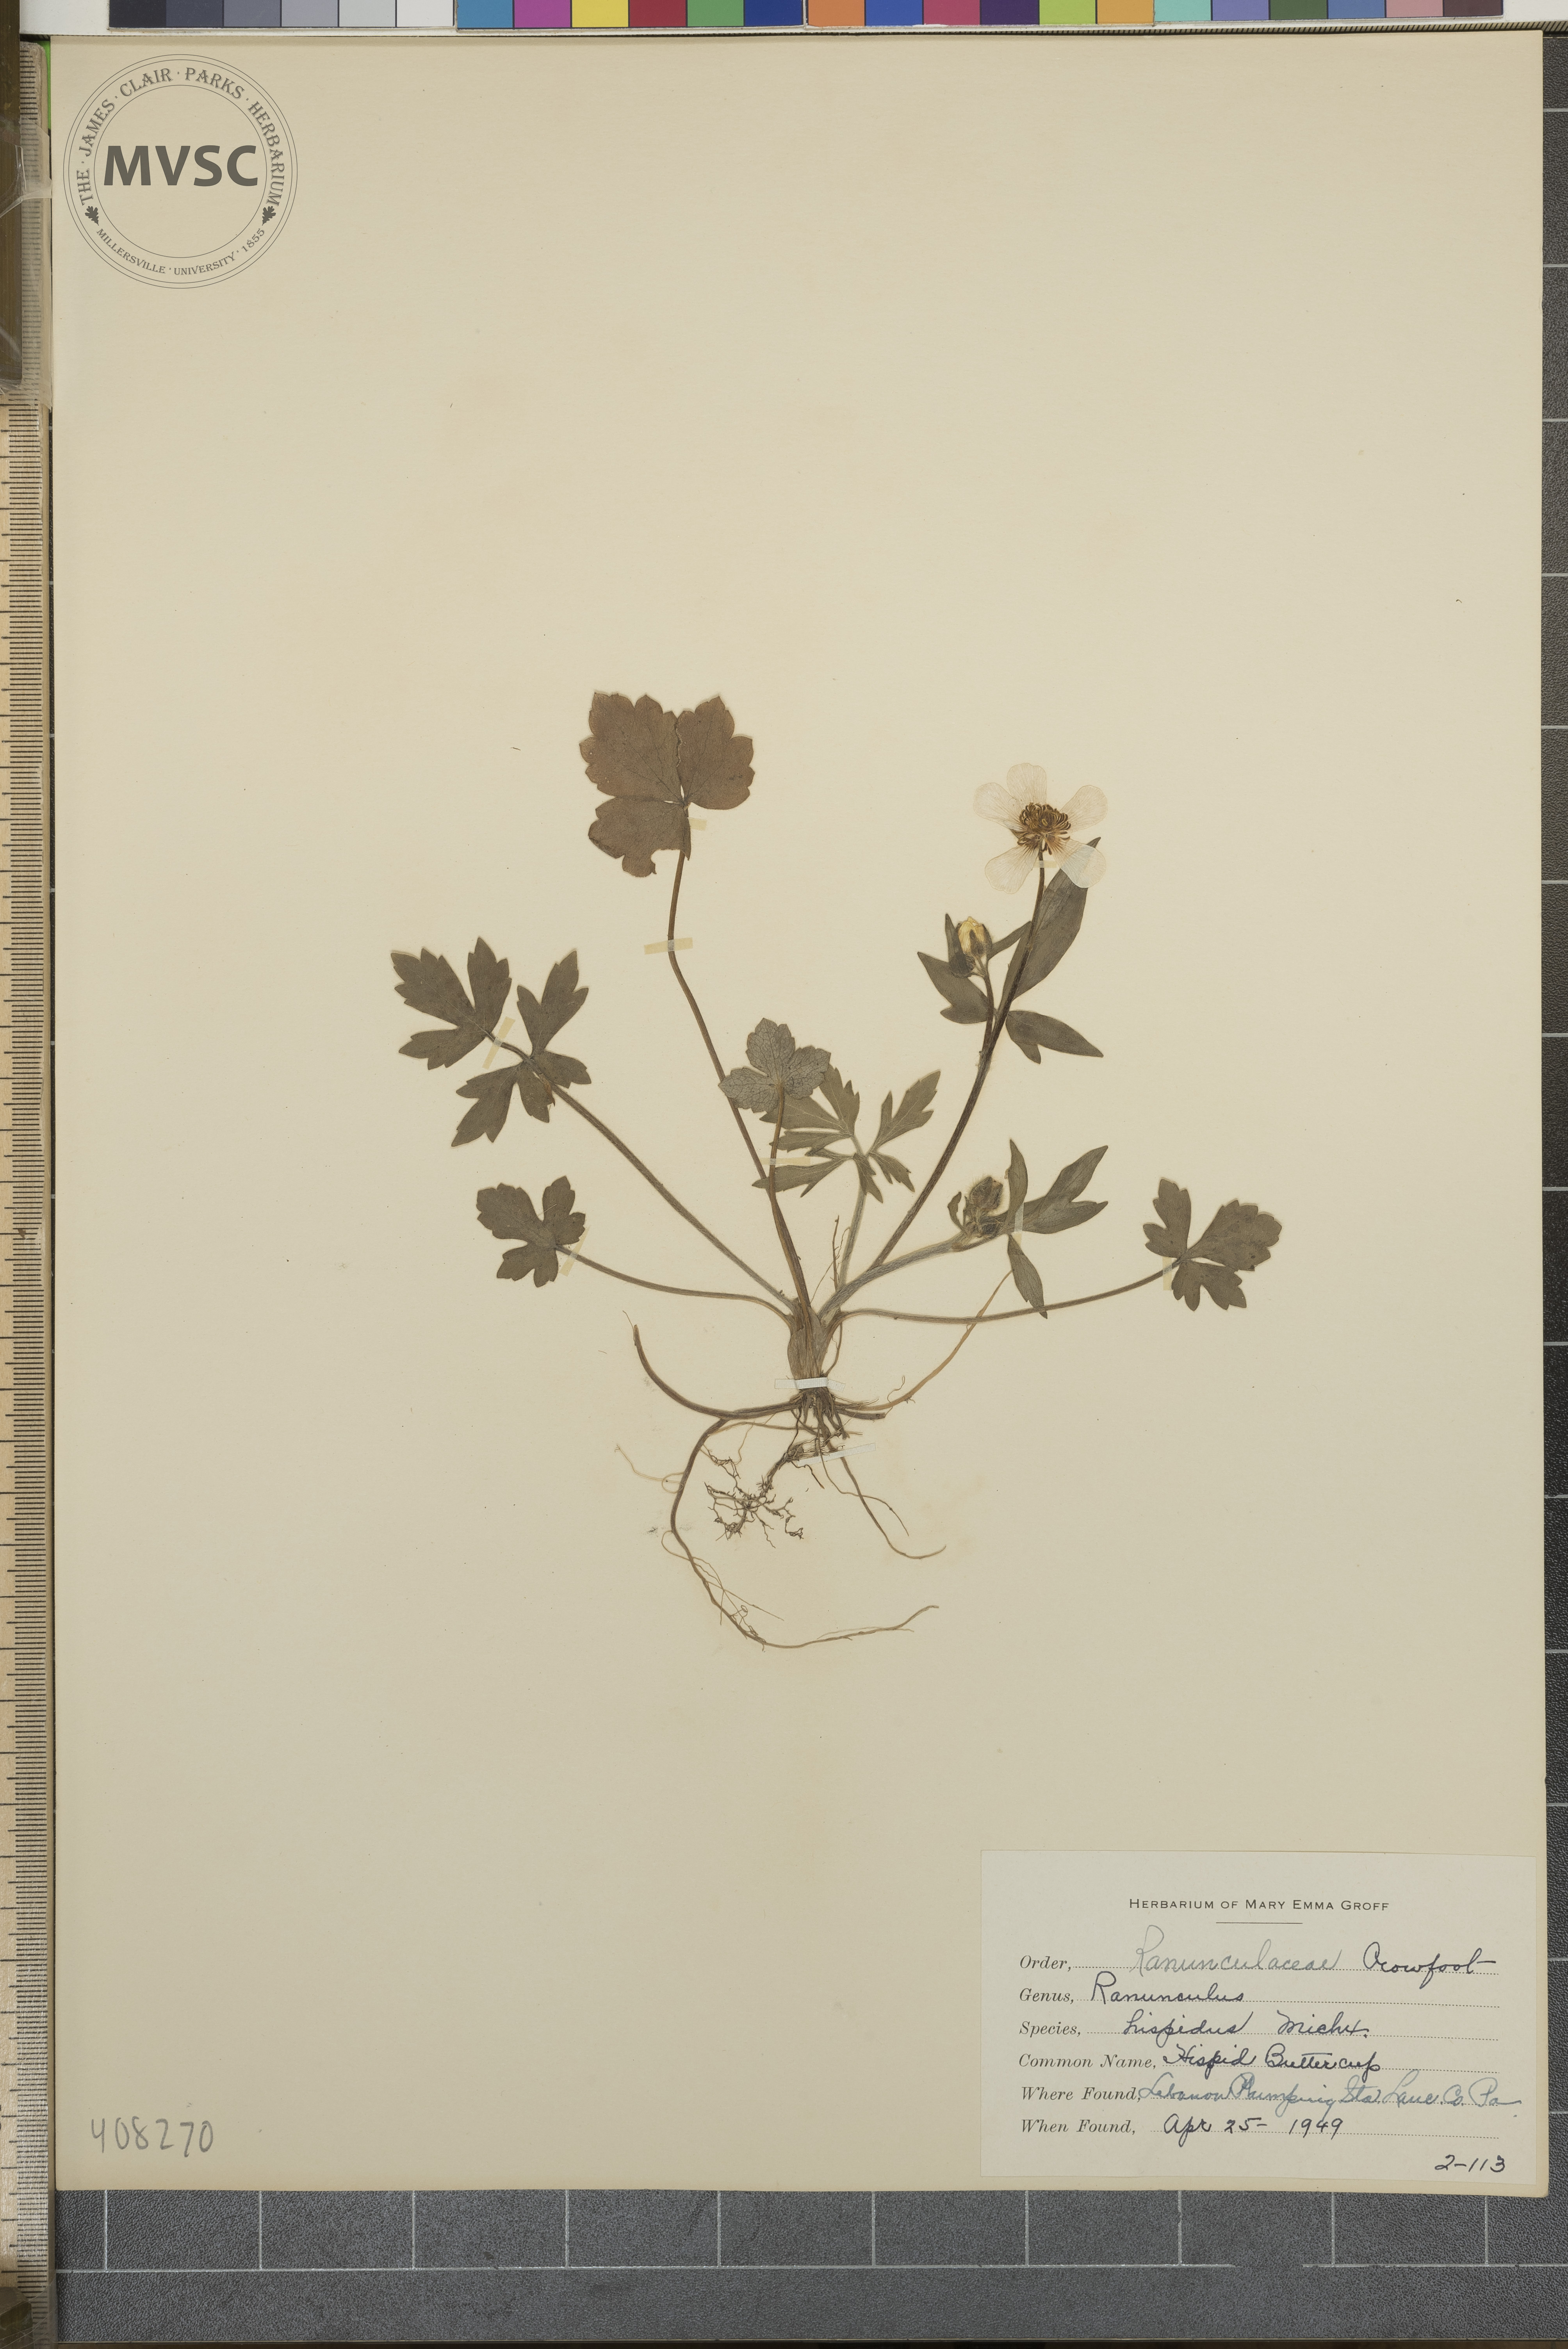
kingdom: Plantae
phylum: Tracheophyta
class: Magnoliopsida
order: Ranunculales
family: Ranunculaceae
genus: Ranunculus
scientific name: Ranunculus hispidus
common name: Hispid Buttercup
